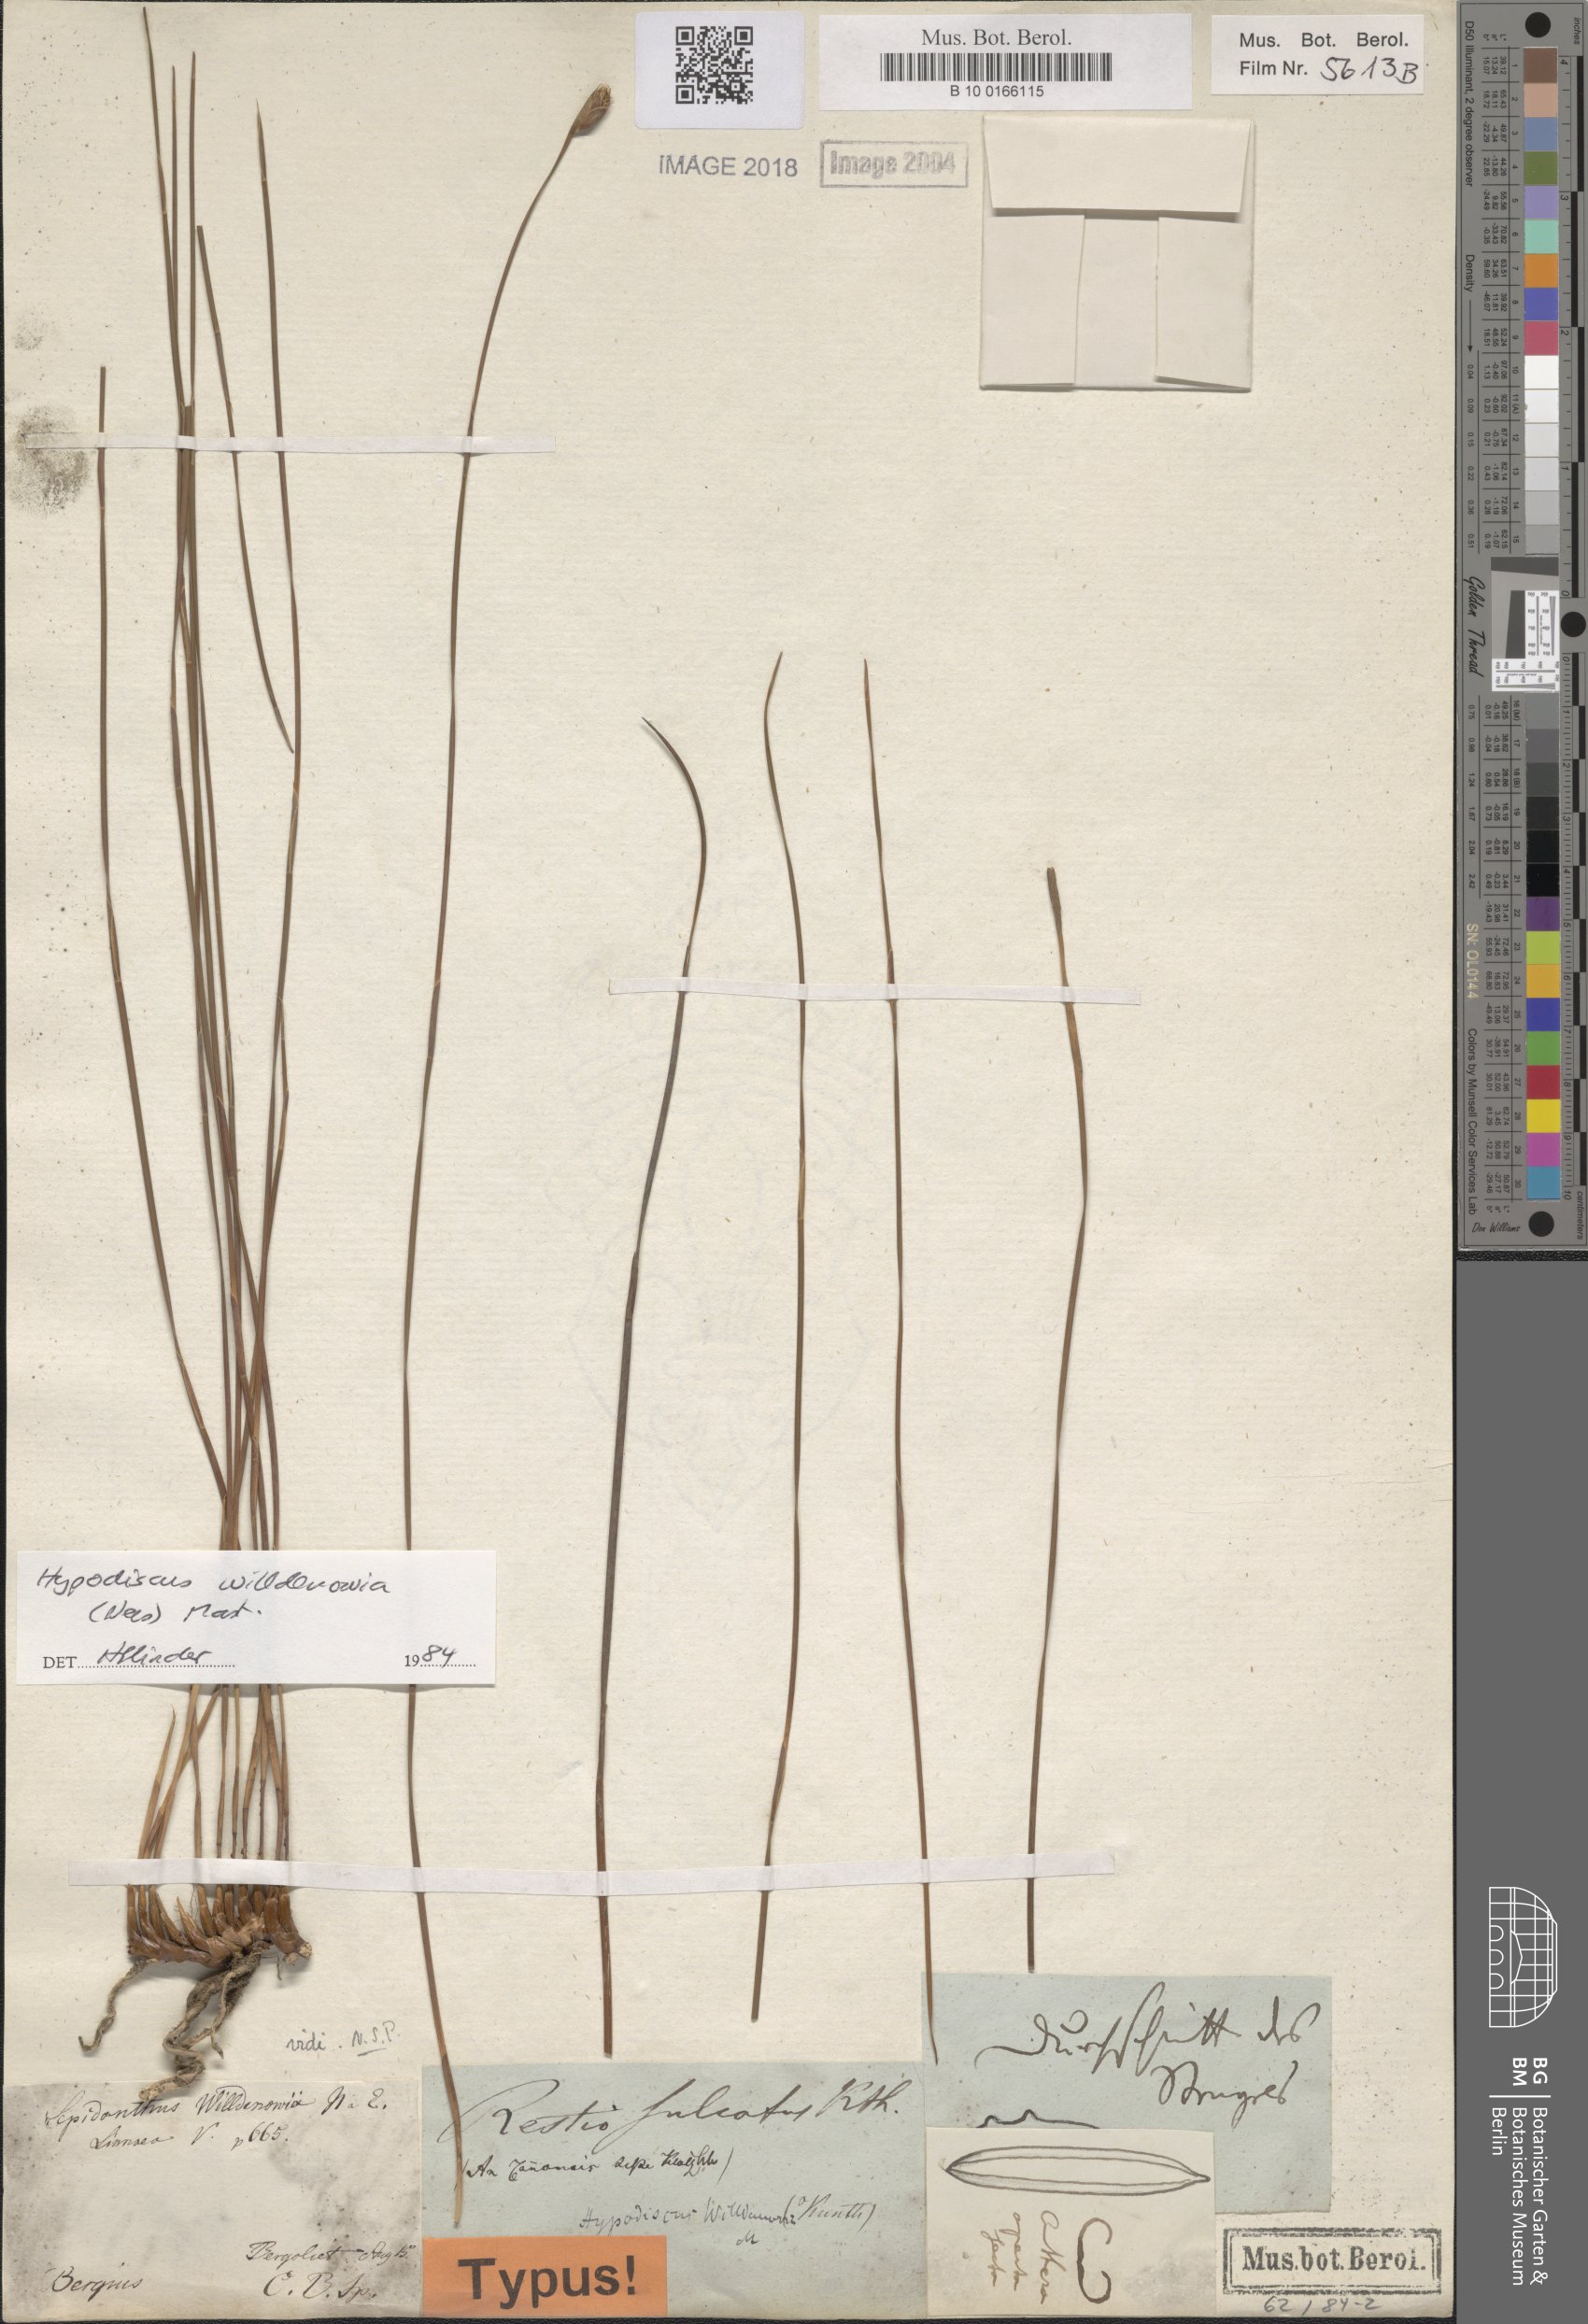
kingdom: Plantae
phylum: Tracheophyta
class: Liliopsida
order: Poales
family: Restionaceae
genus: Hypodiscus
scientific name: Hypodiscus willdenowia
